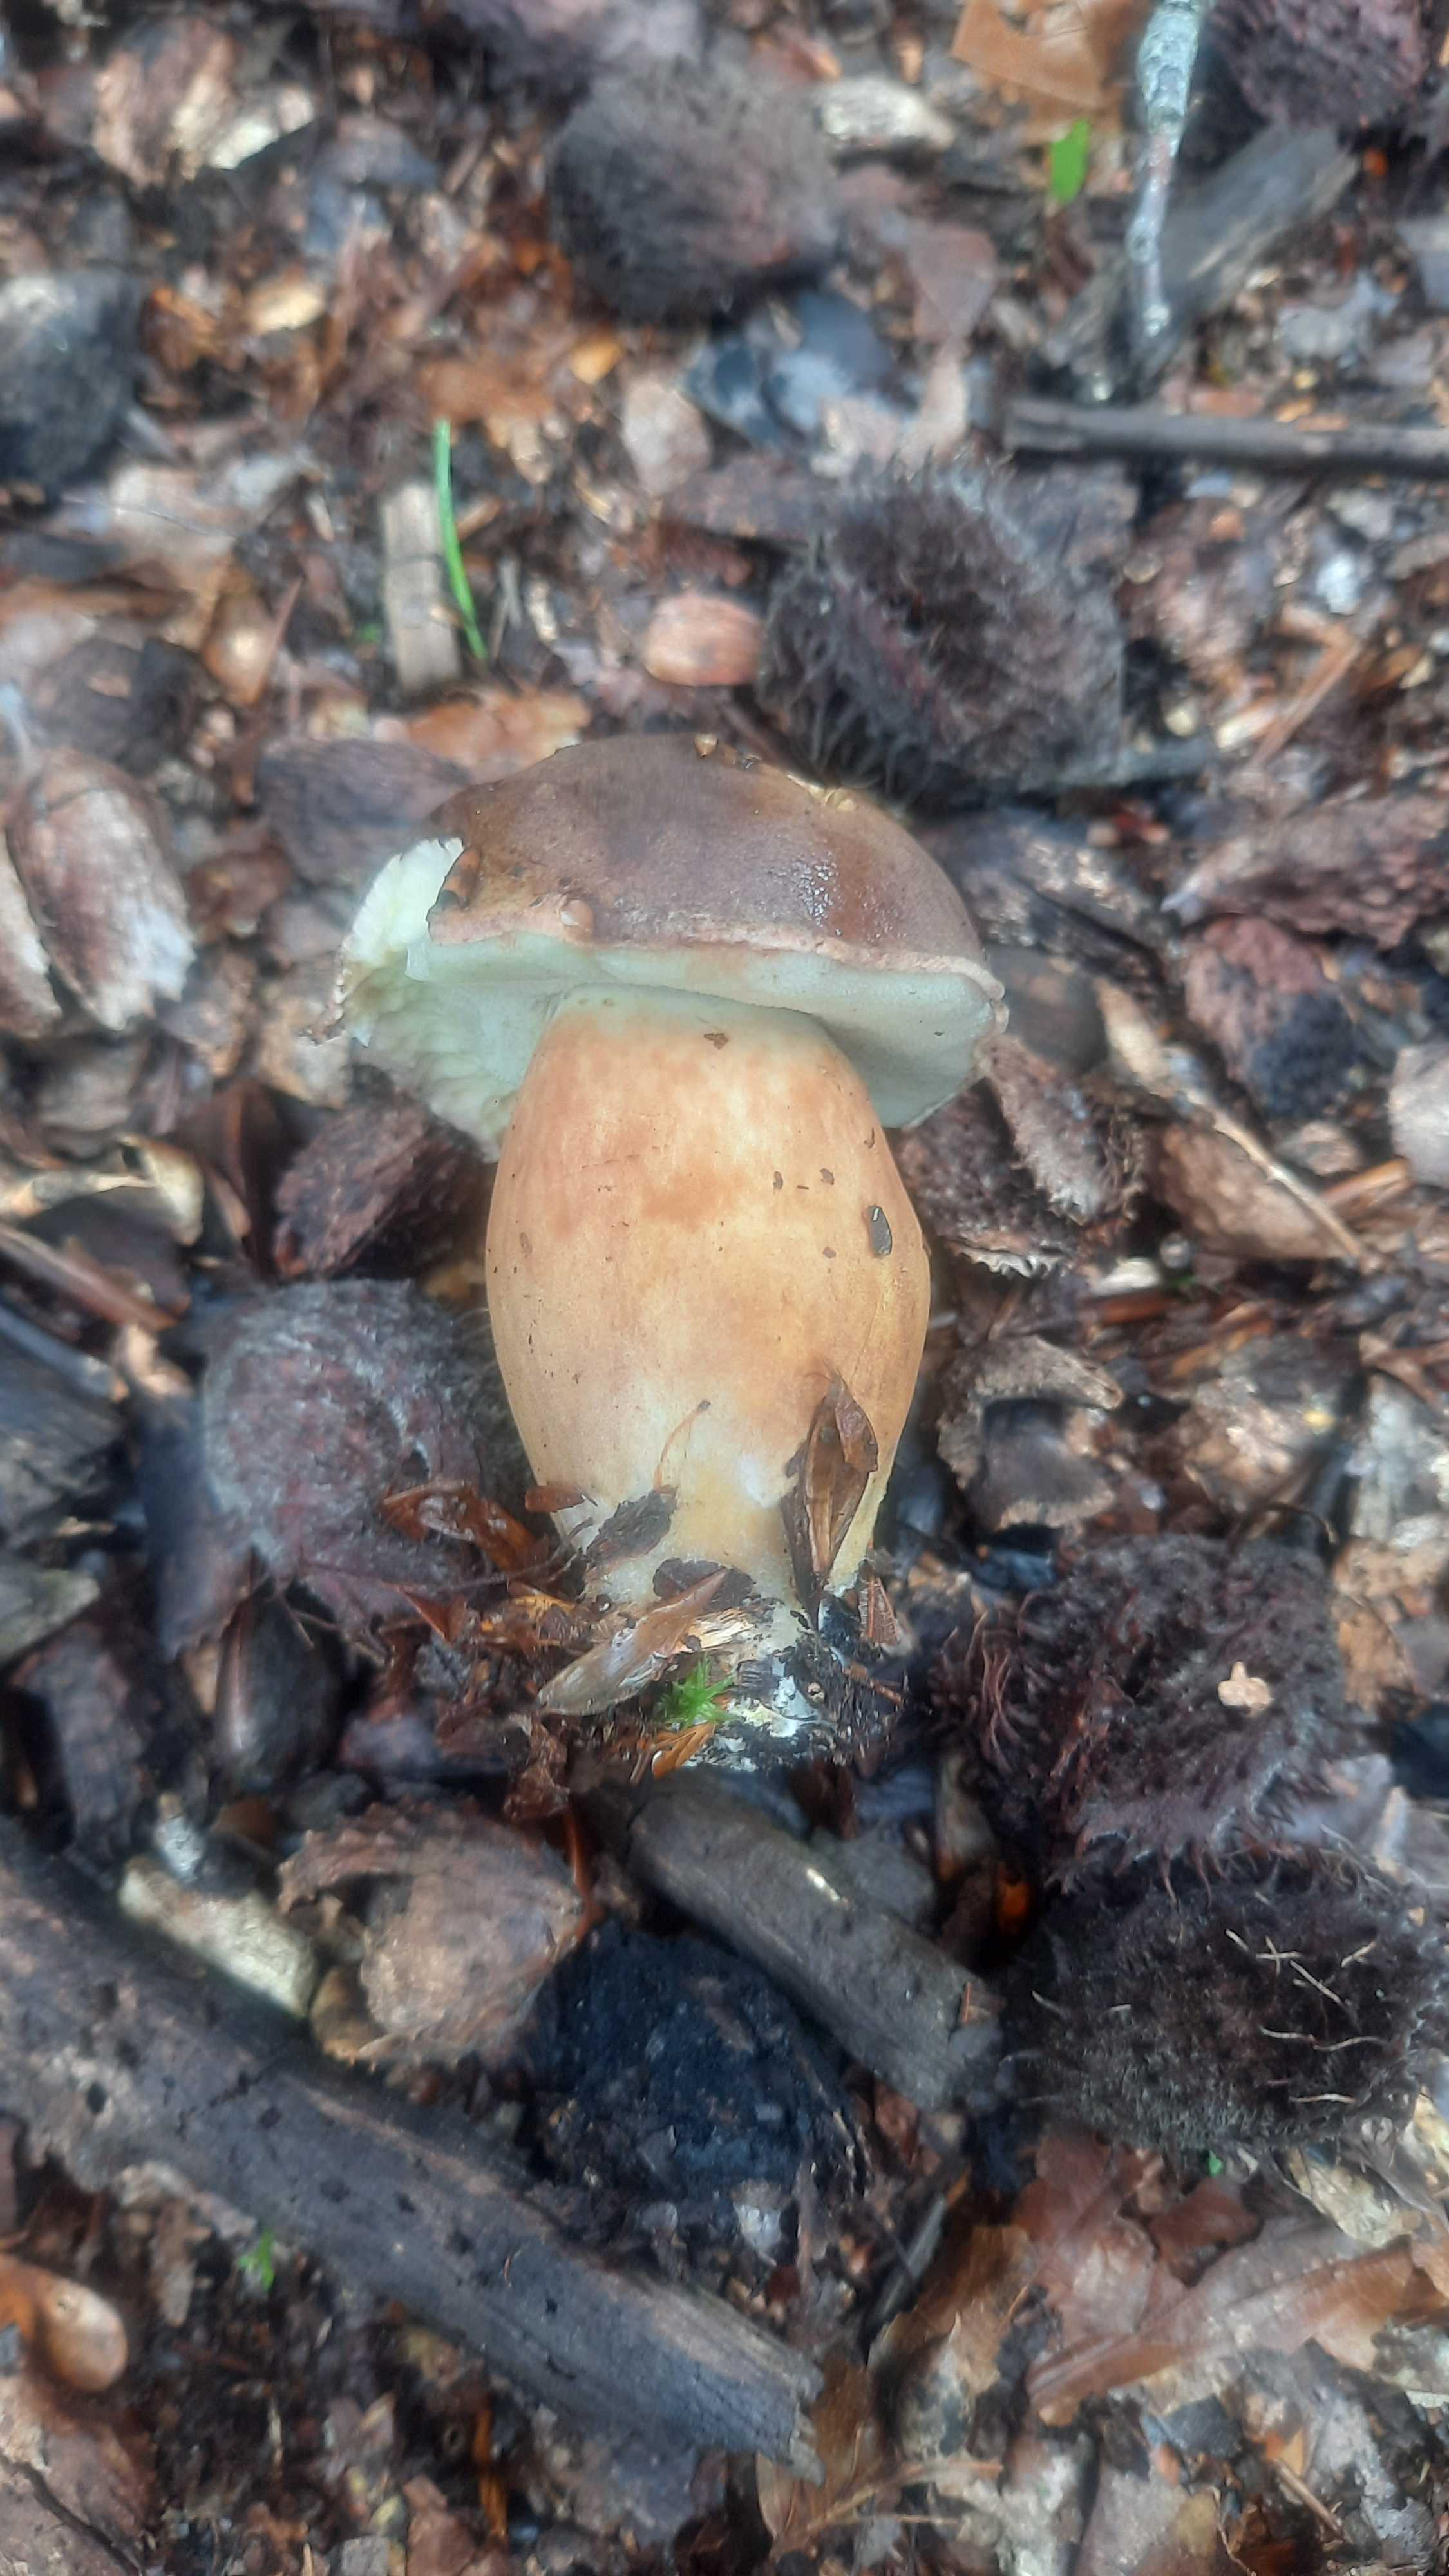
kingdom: Fungi
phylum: Basidiomycota
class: Agaricomycetes
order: Boletales
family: Boletaceae
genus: Imleria
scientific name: Imleria badia
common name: brunstokket rørhat
